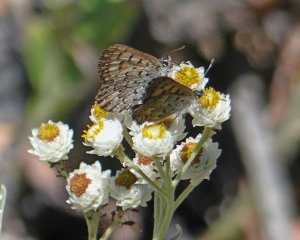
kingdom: Animalia
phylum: Arthropoda
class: Insecta
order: Lepidoptera
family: Lycaenidae
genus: Lycaena
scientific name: Lycaena mariposa
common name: Mariposa Copper
